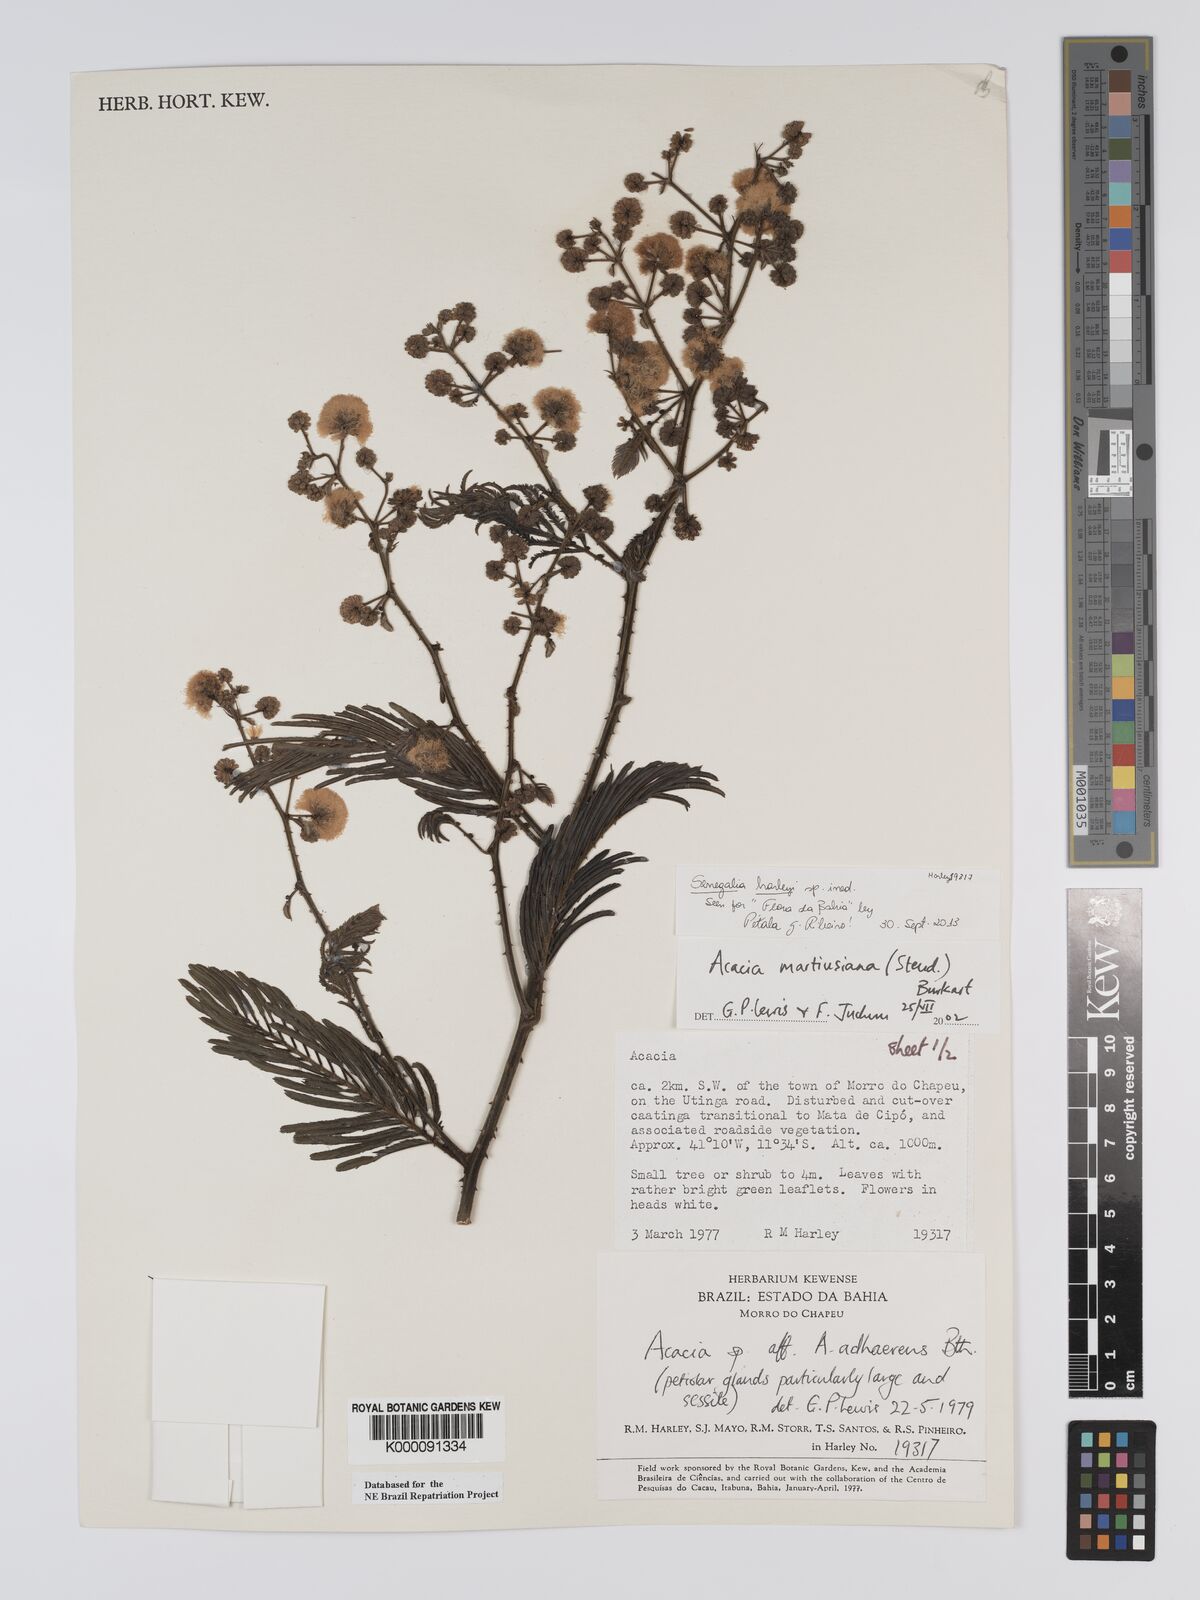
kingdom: Plantae
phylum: Tracheophyta
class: Magnoliopsida
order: Fabales
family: Fabaceae
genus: Senegalia
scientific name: Senegalia martiusiana
